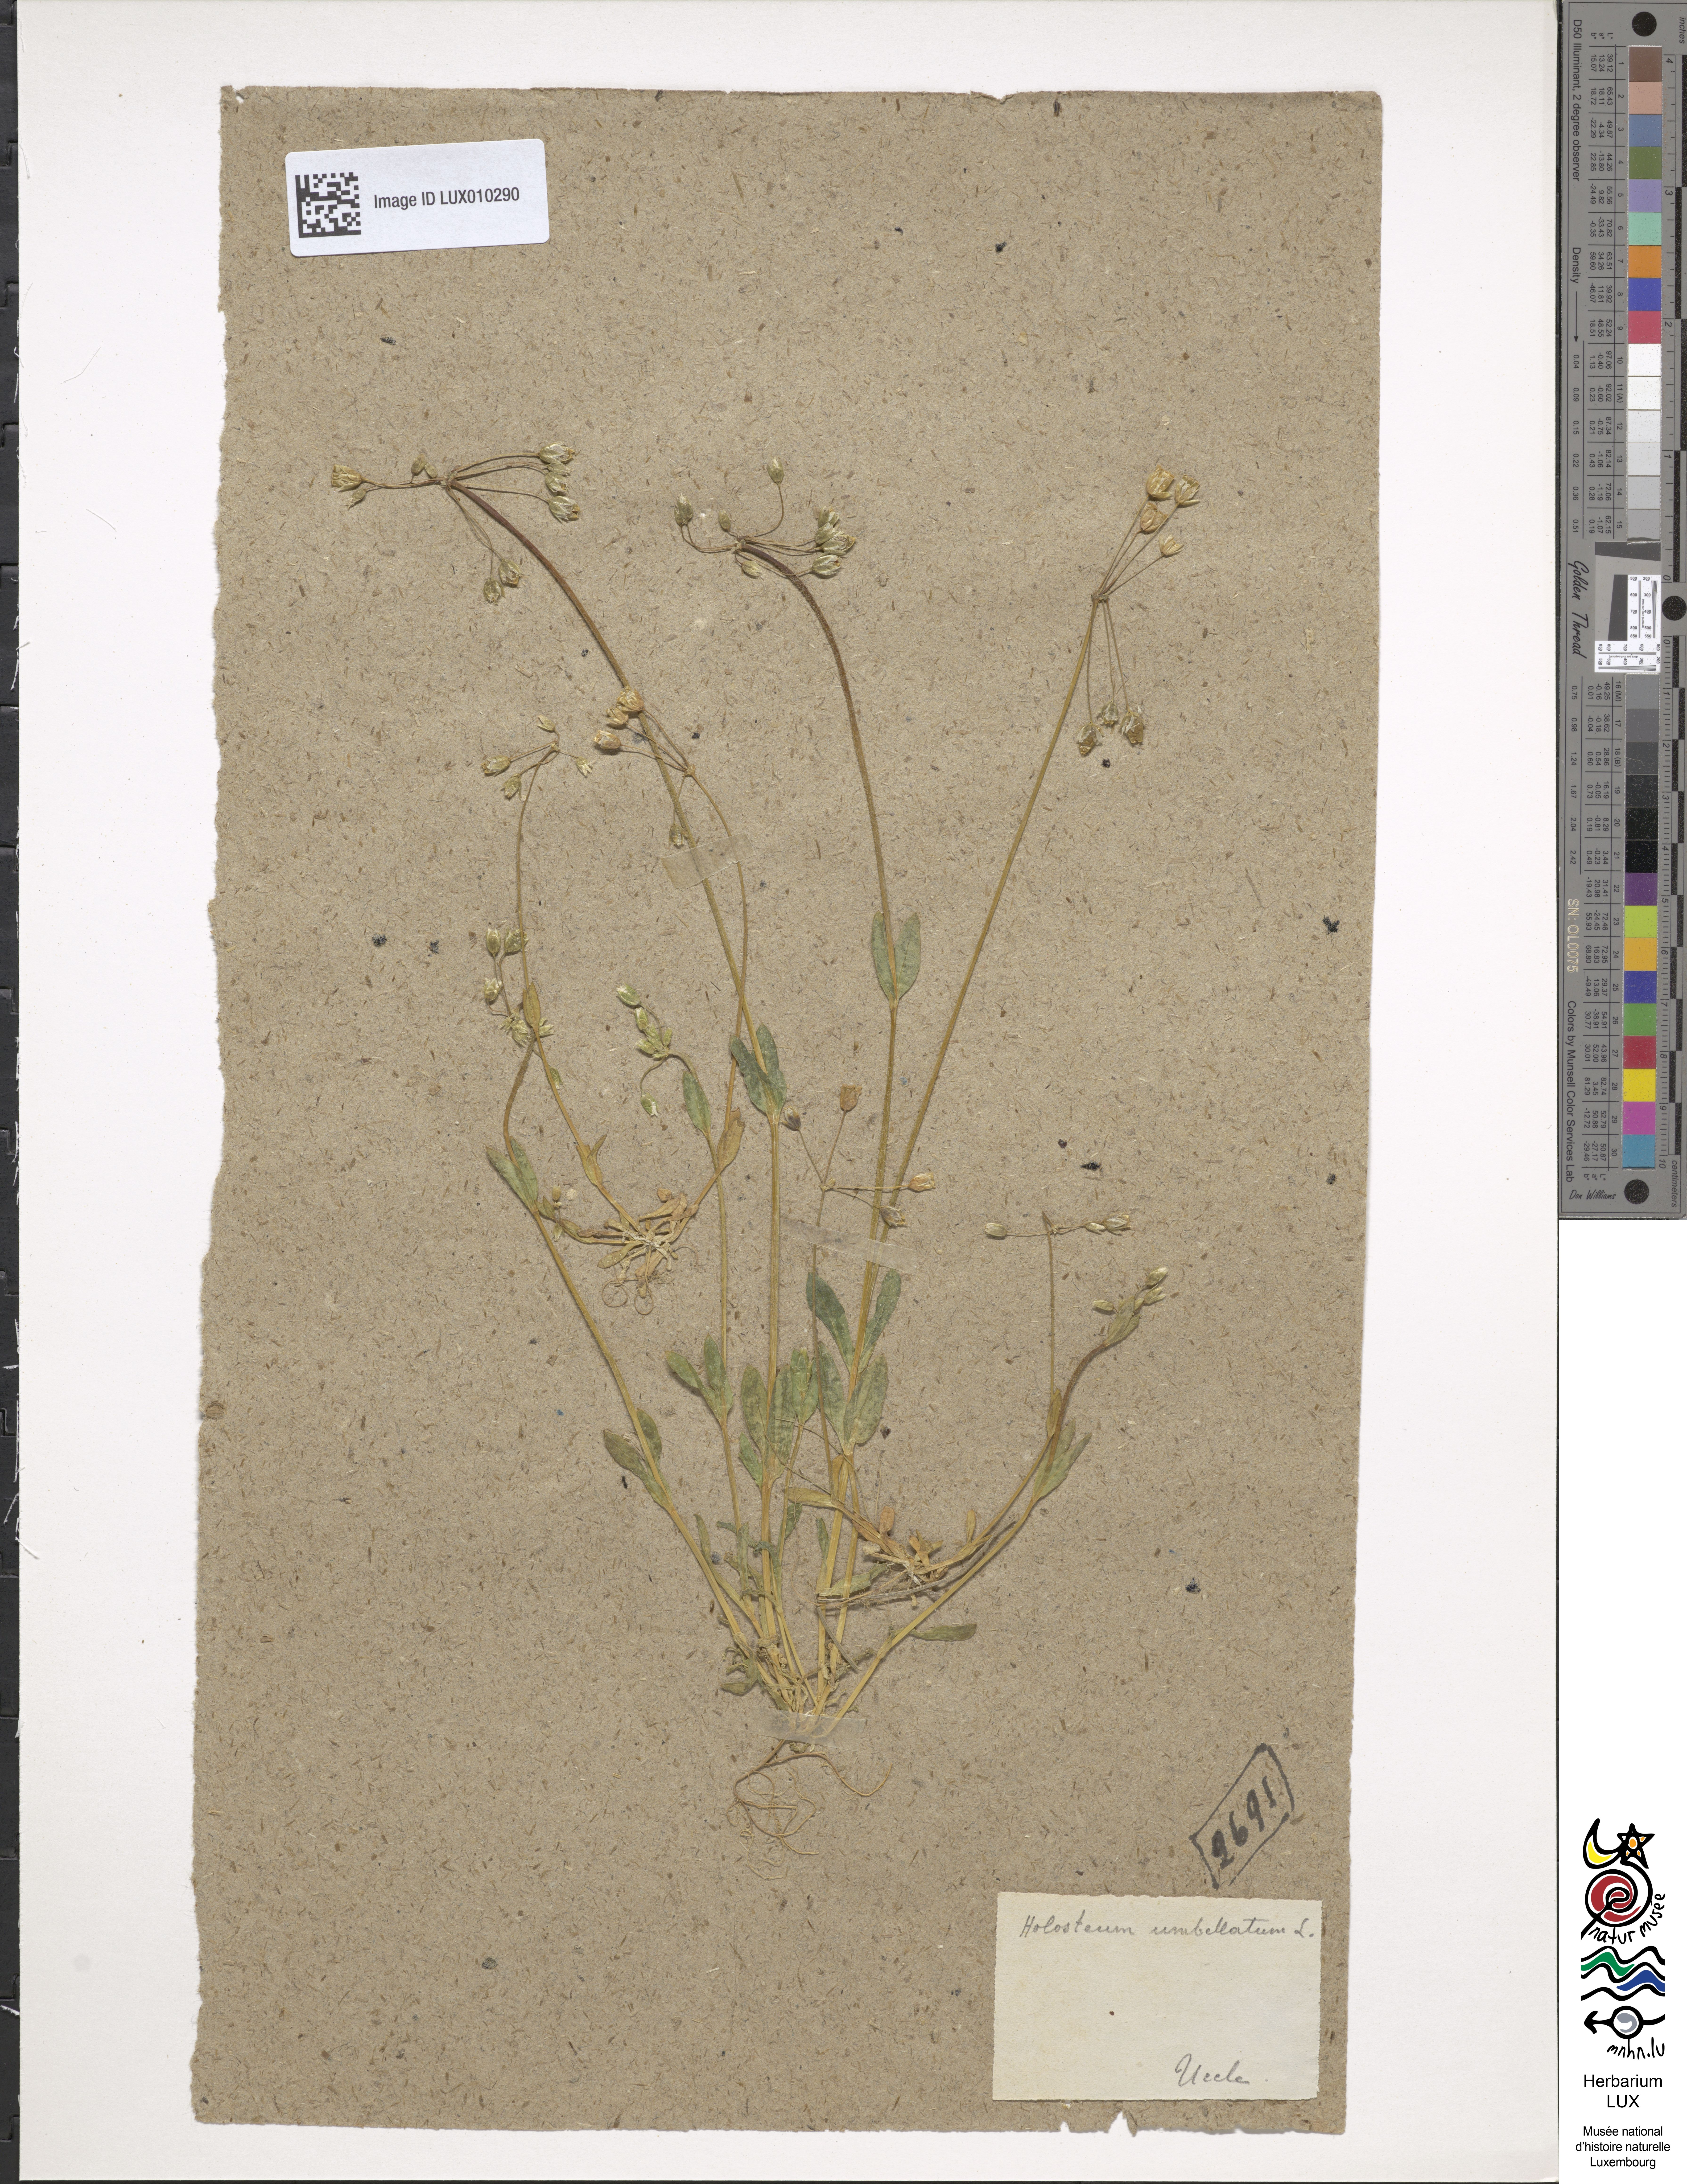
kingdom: Plantae
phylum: Tracheophyta
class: Magnoliopsida
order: Caryophyllales
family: Caryophyllaceae
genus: Holosteum
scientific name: Holosteum umbellatum
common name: Jagged chickweed
